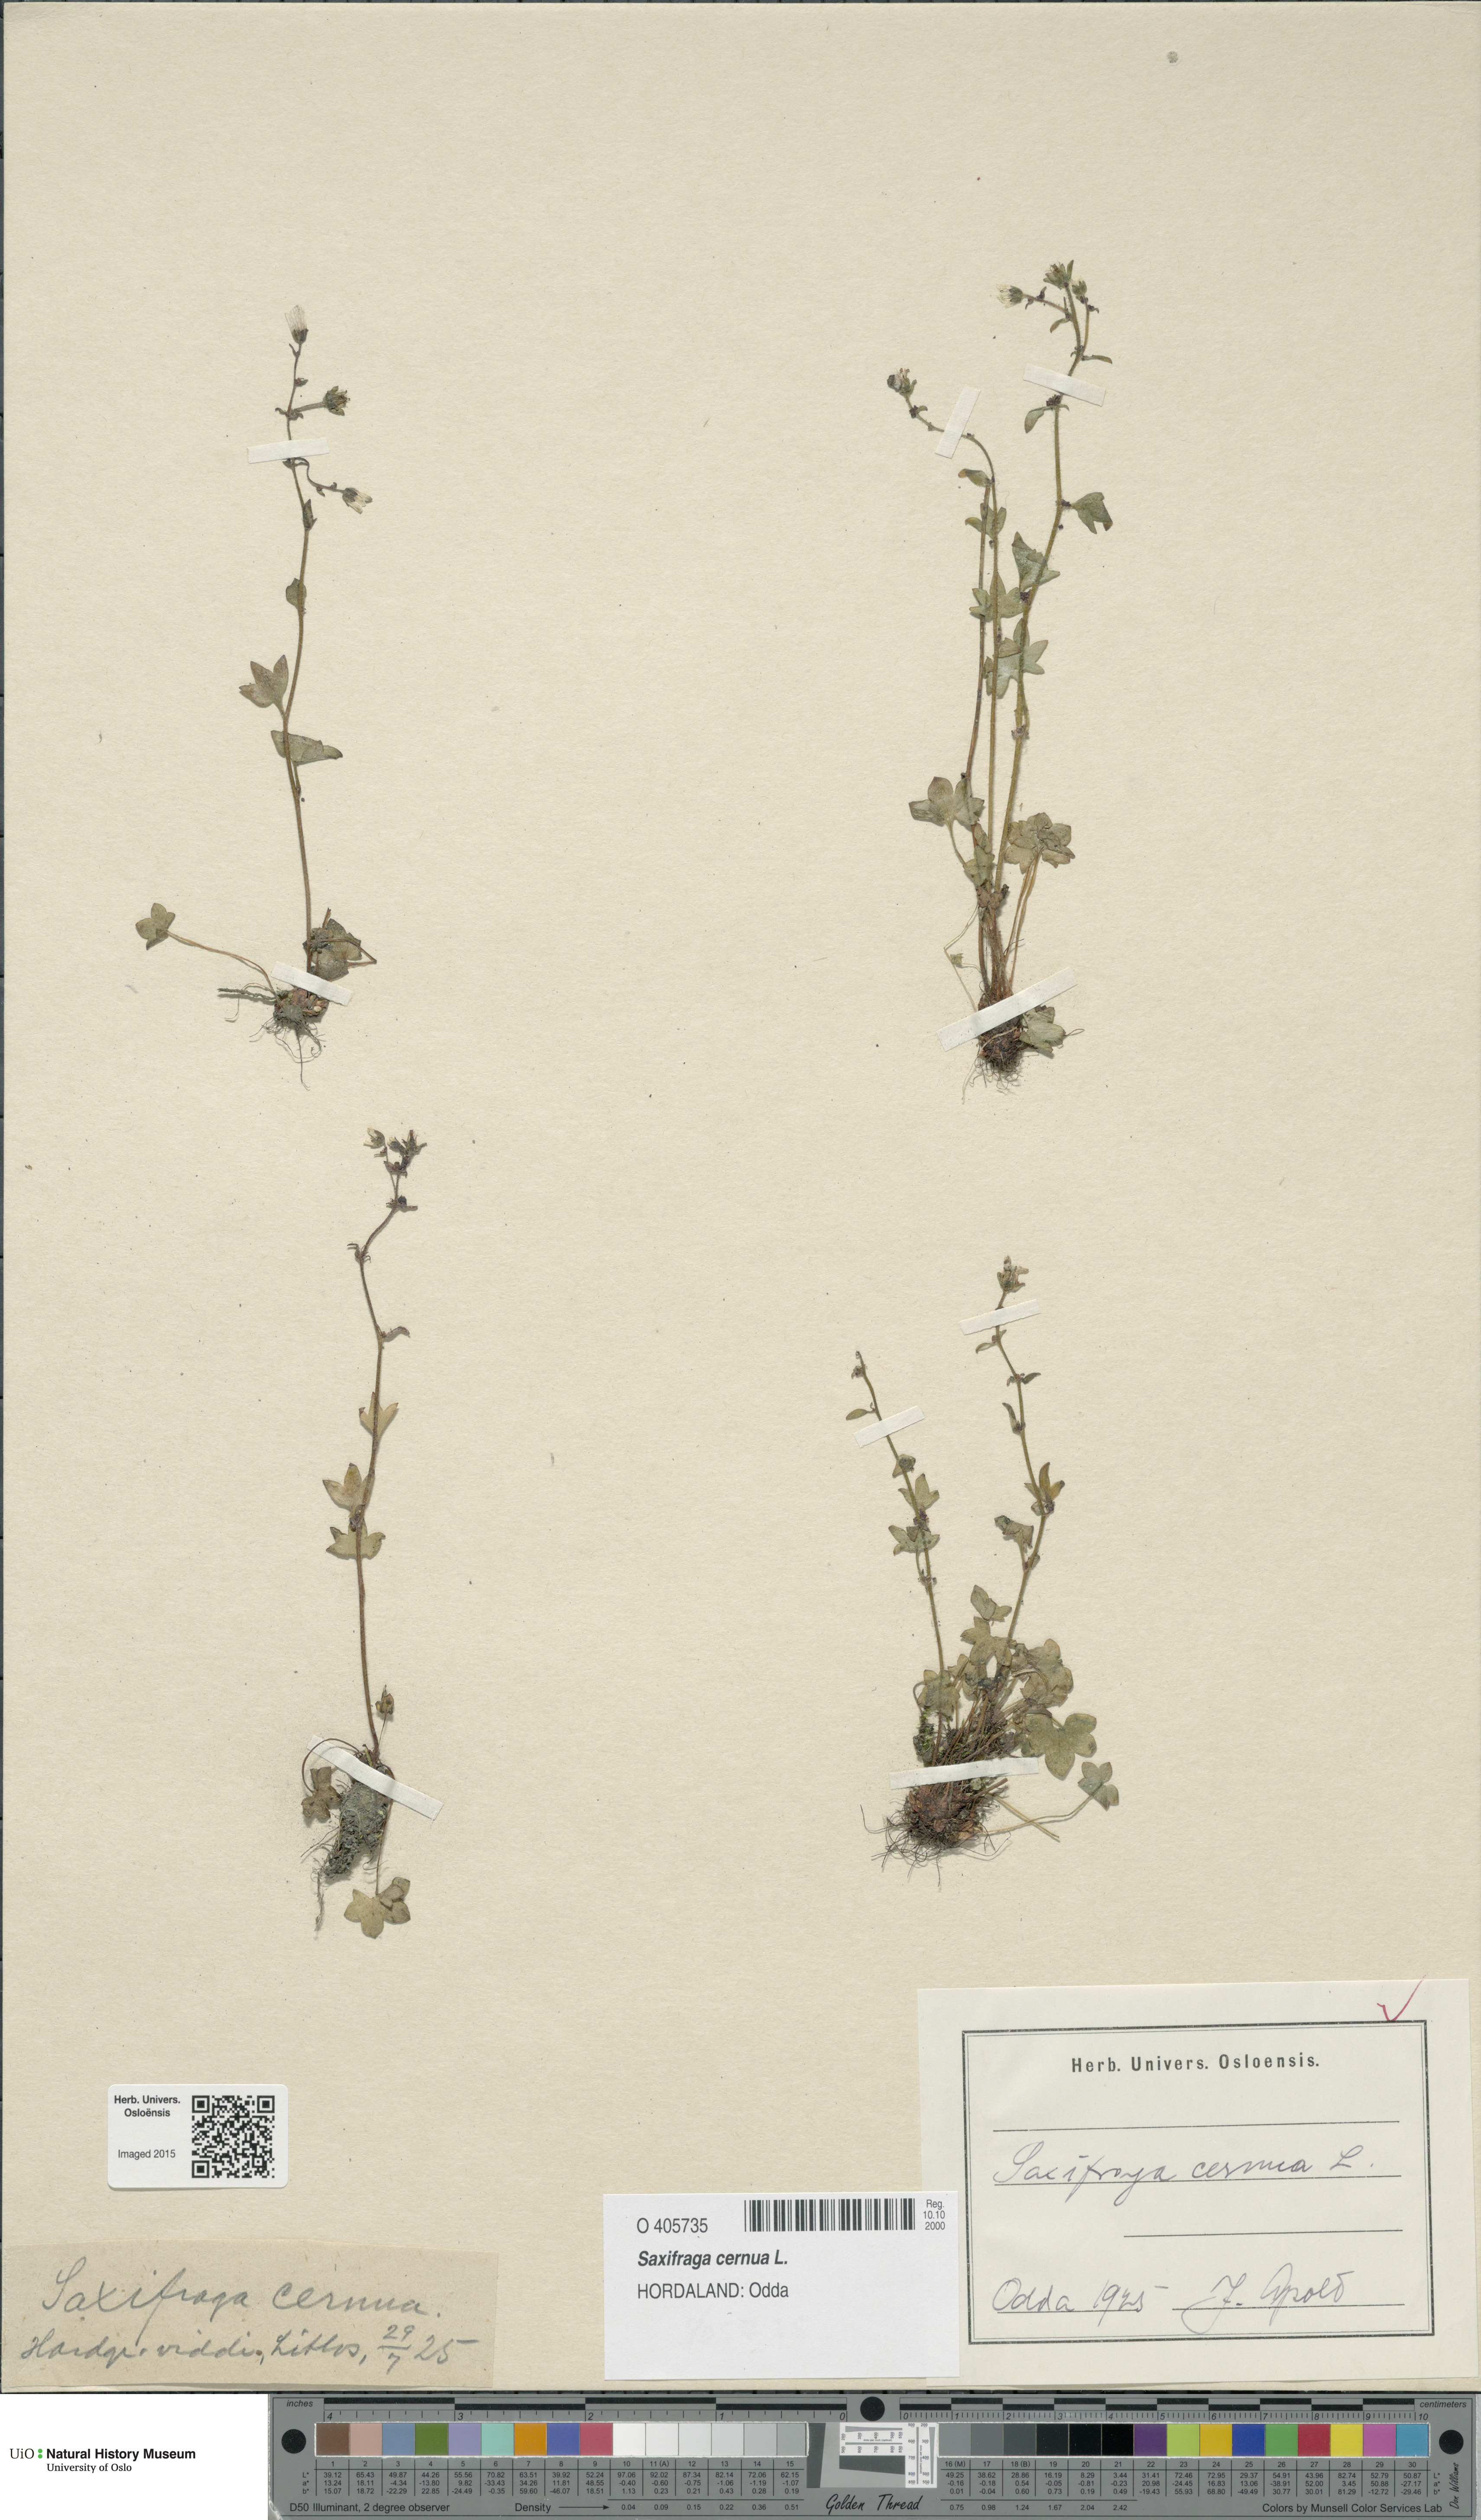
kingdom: Plantae
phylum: Tracheophyta
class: Magnoliopsida
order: Saxifragales
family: Saxifragaceae
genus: Saxifraga
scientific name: Saxifraga cernua
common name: Drooping saxifrage
